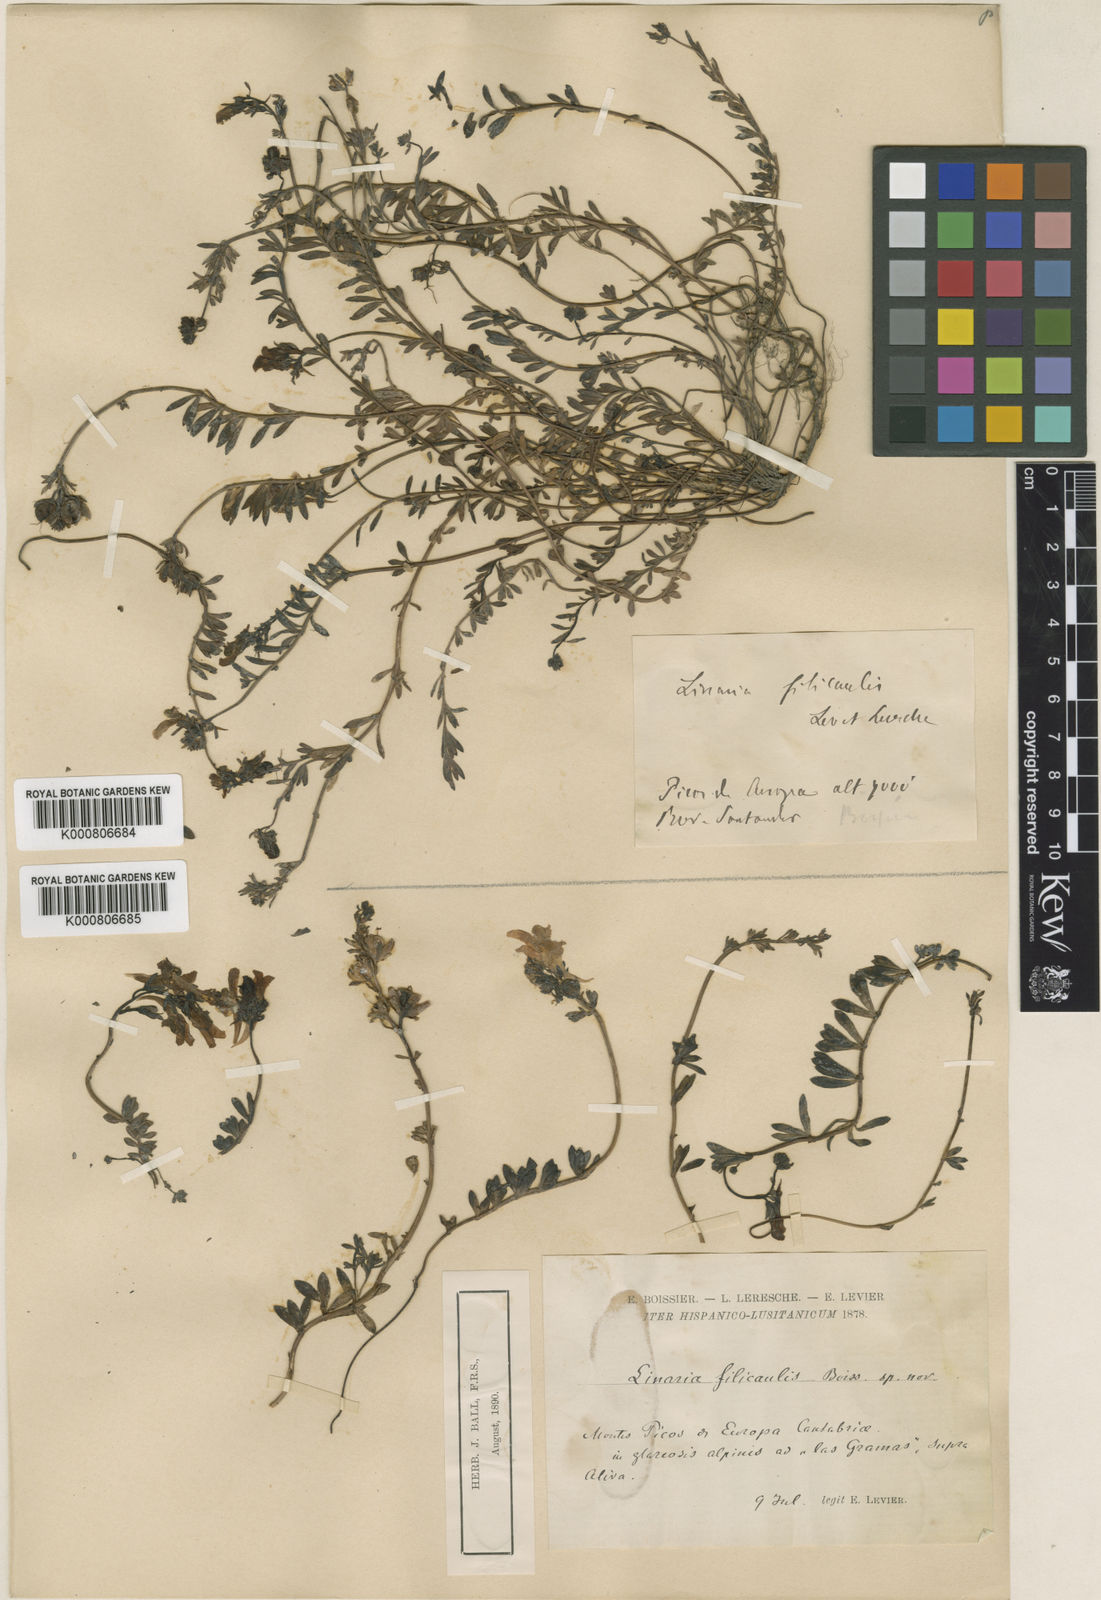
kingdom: Plantae
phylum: Tracheophyta
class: Magnoliopsida
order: Lamiales
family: Plantaginaceae
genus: Linaria
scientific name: Linaria alpina
